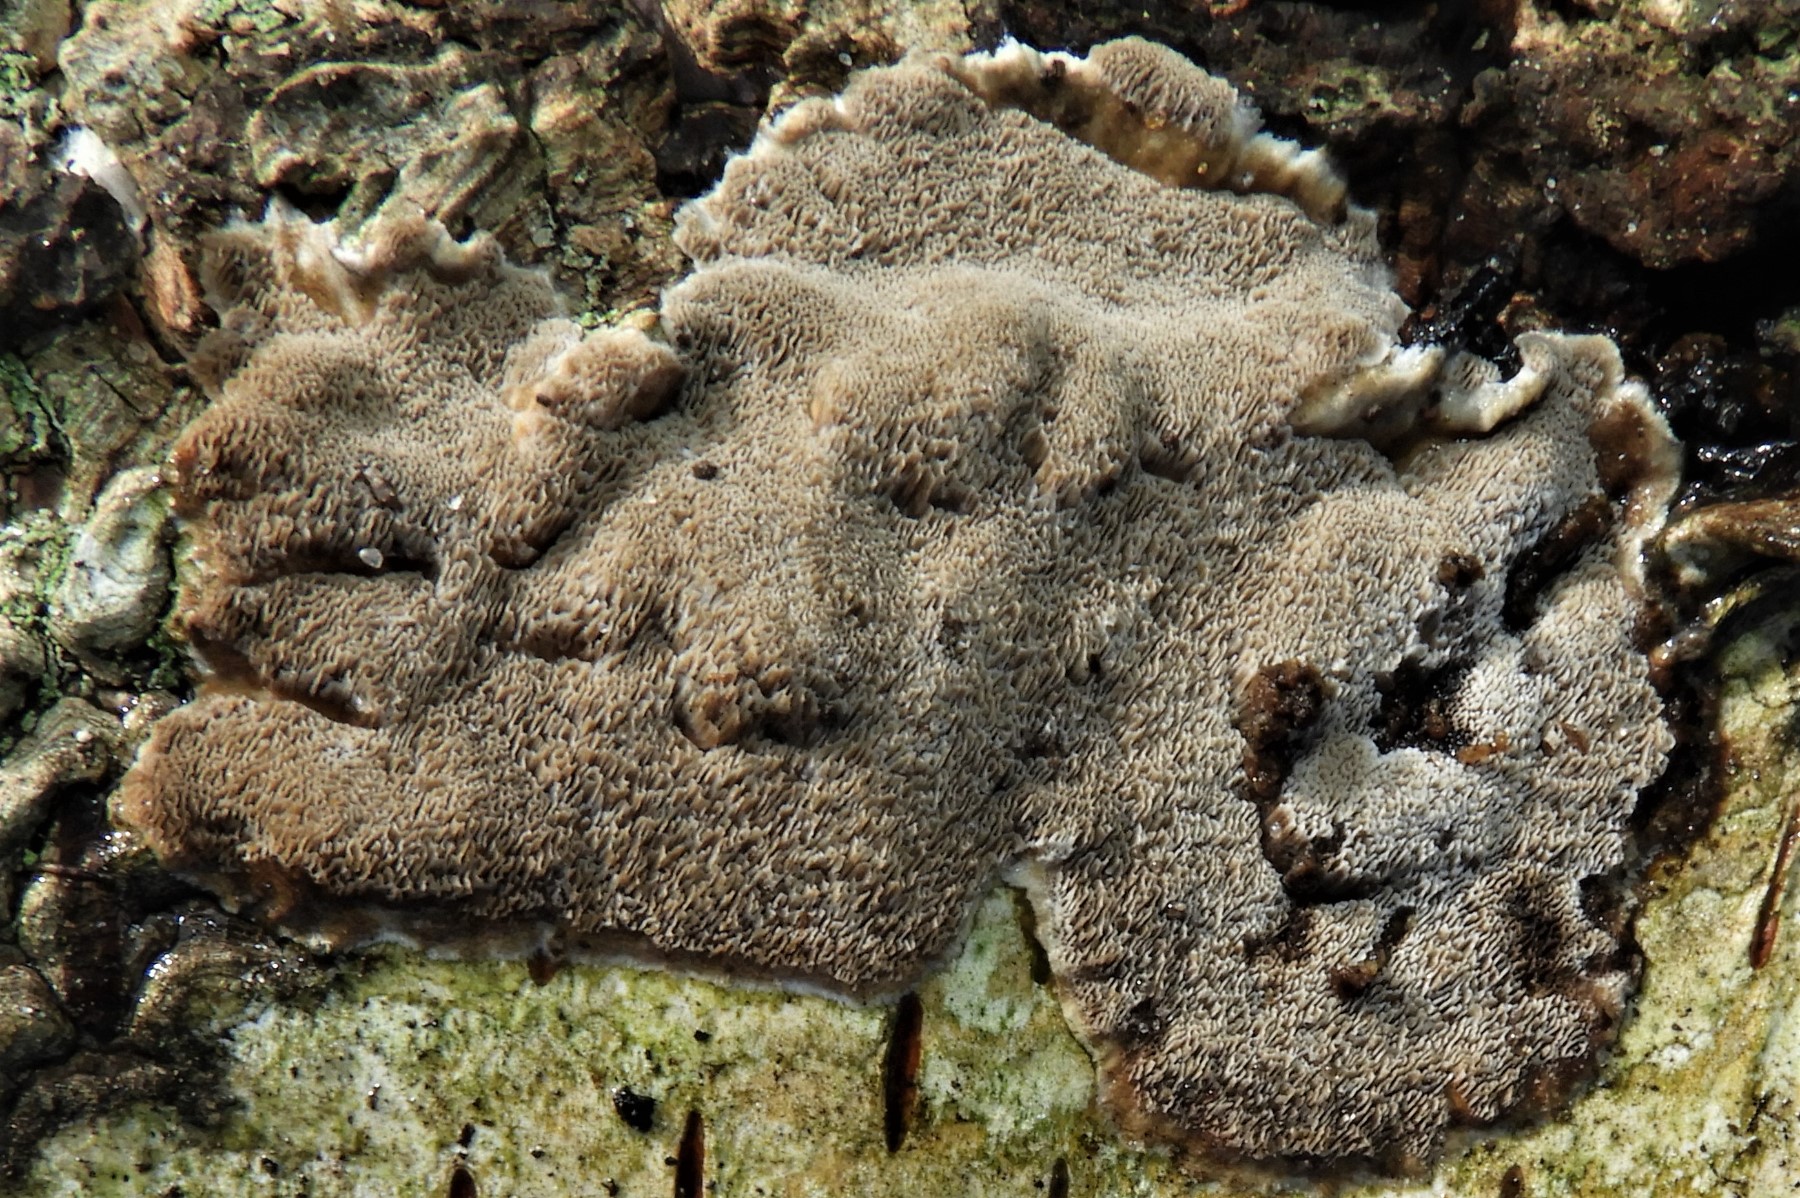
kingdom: Fungi
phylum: Basidiomycota
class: Agaricomycetes
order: Polyporales
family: Phanerochaetaceae
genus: Bjerkandera
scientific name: Bjerkandera adusta
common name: sveden sodporesvamp
